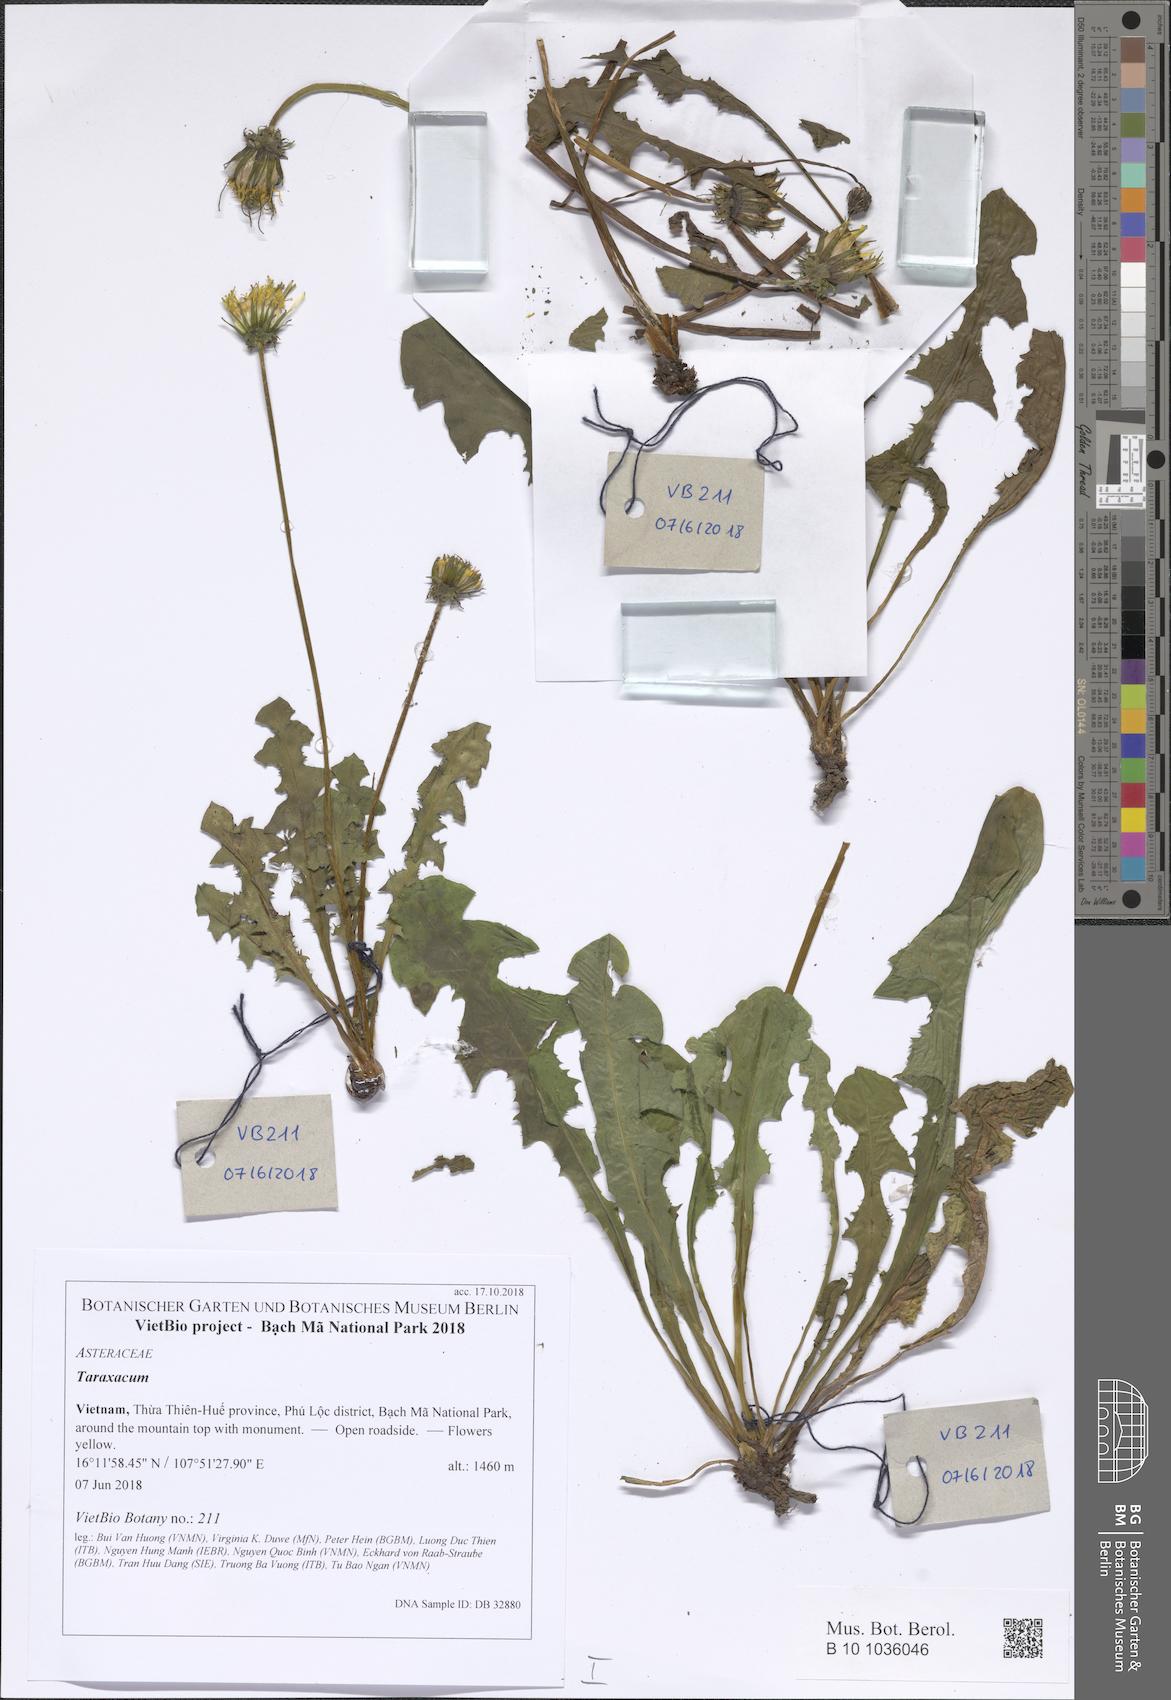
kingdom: Plantae
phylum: Tracheophyta
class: Magnoliopsida
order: Asterales
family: Asteraceae
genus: Taraxacum
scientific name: Taraxacum
